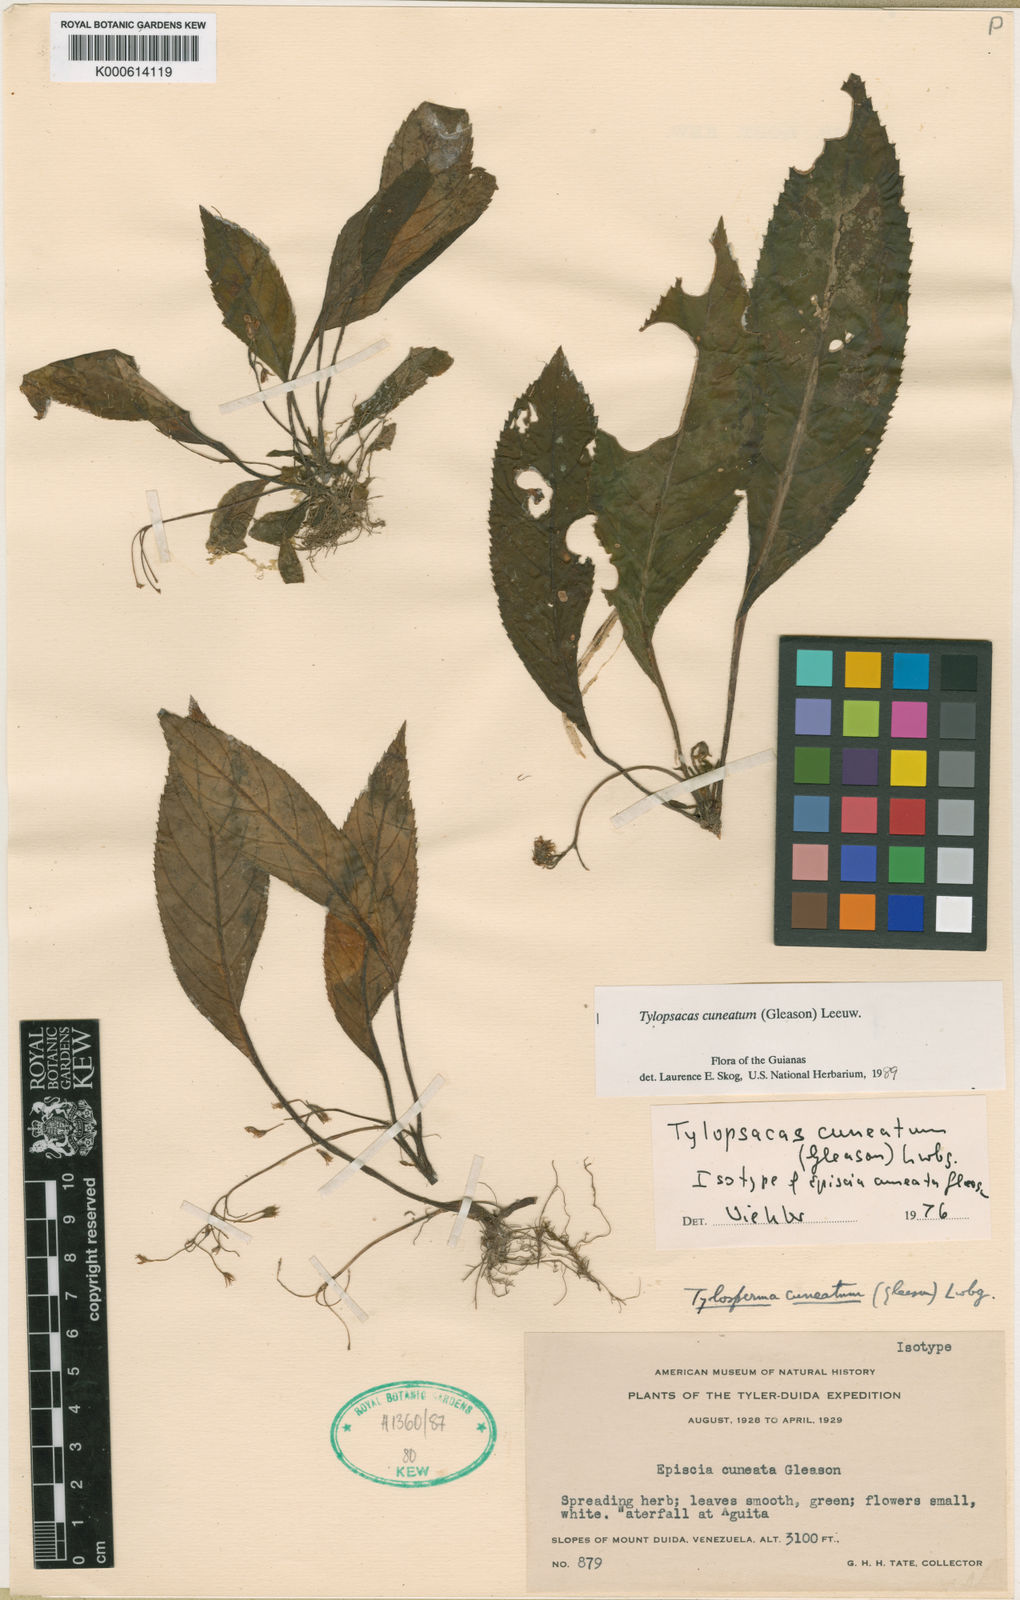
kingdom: Plantae
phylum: Tracheophyta
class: Magnoliopsida
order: Lamiales
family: Gesneriaceae
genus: Tylopsacas
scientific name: Tylopsacas cuneata
